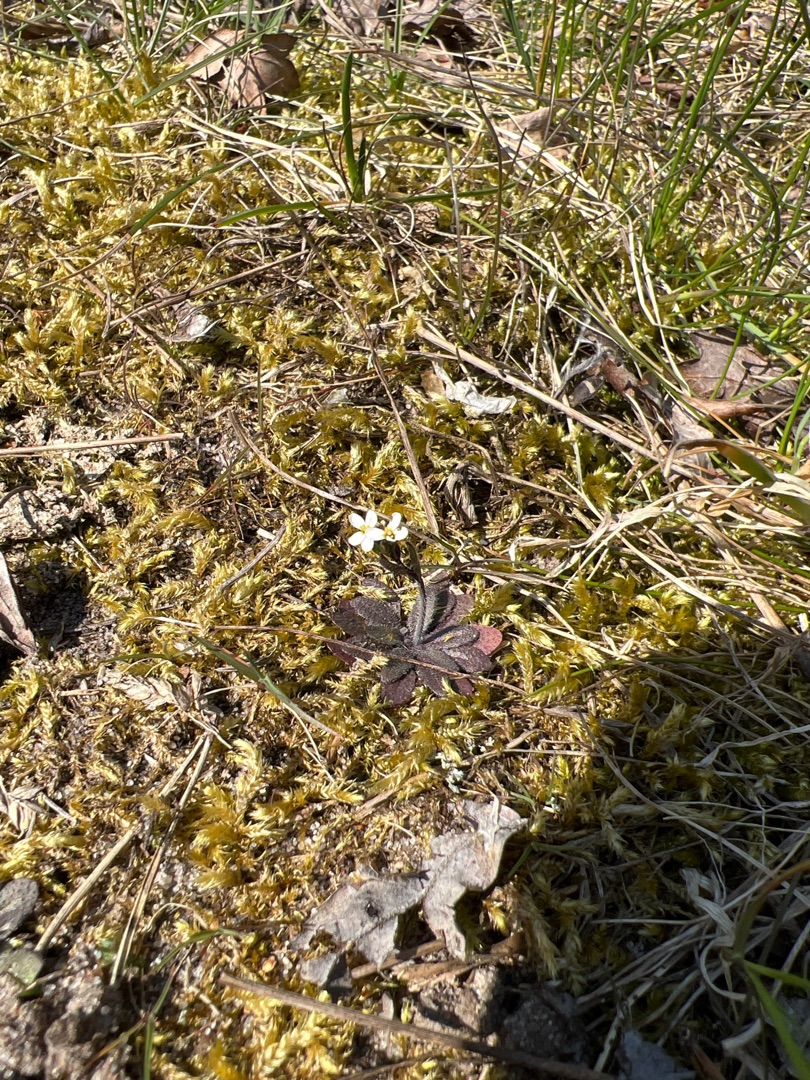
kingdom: Plantae
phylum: Tracheophyta
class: Magnoliopsida
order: Brassicales
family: Brassicaceae
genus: Draba
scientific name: Draba verna
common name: Vår-gæslingeblomst
